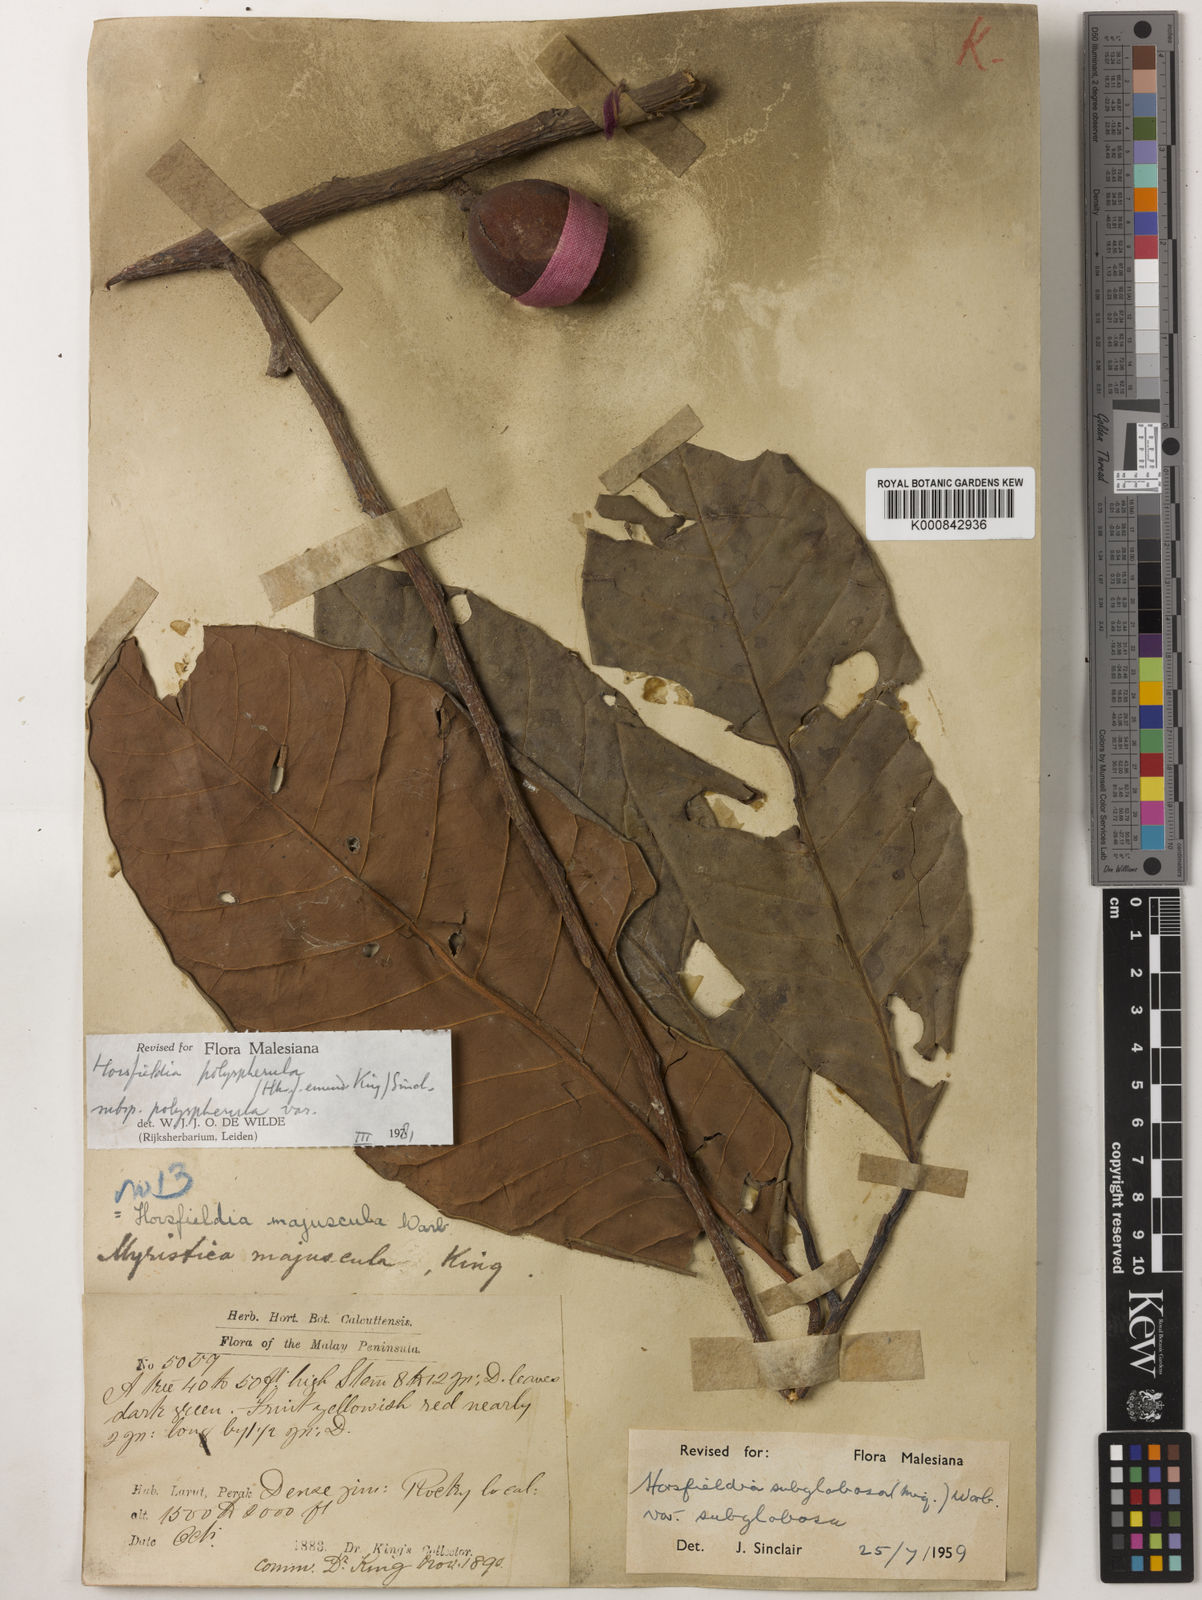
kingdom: Plantae
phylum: Tracheophyta
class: Magnoliopsida
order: Magnoliales
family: Myristicaceae
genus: Horsfieldia
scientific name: Horsfieldia
